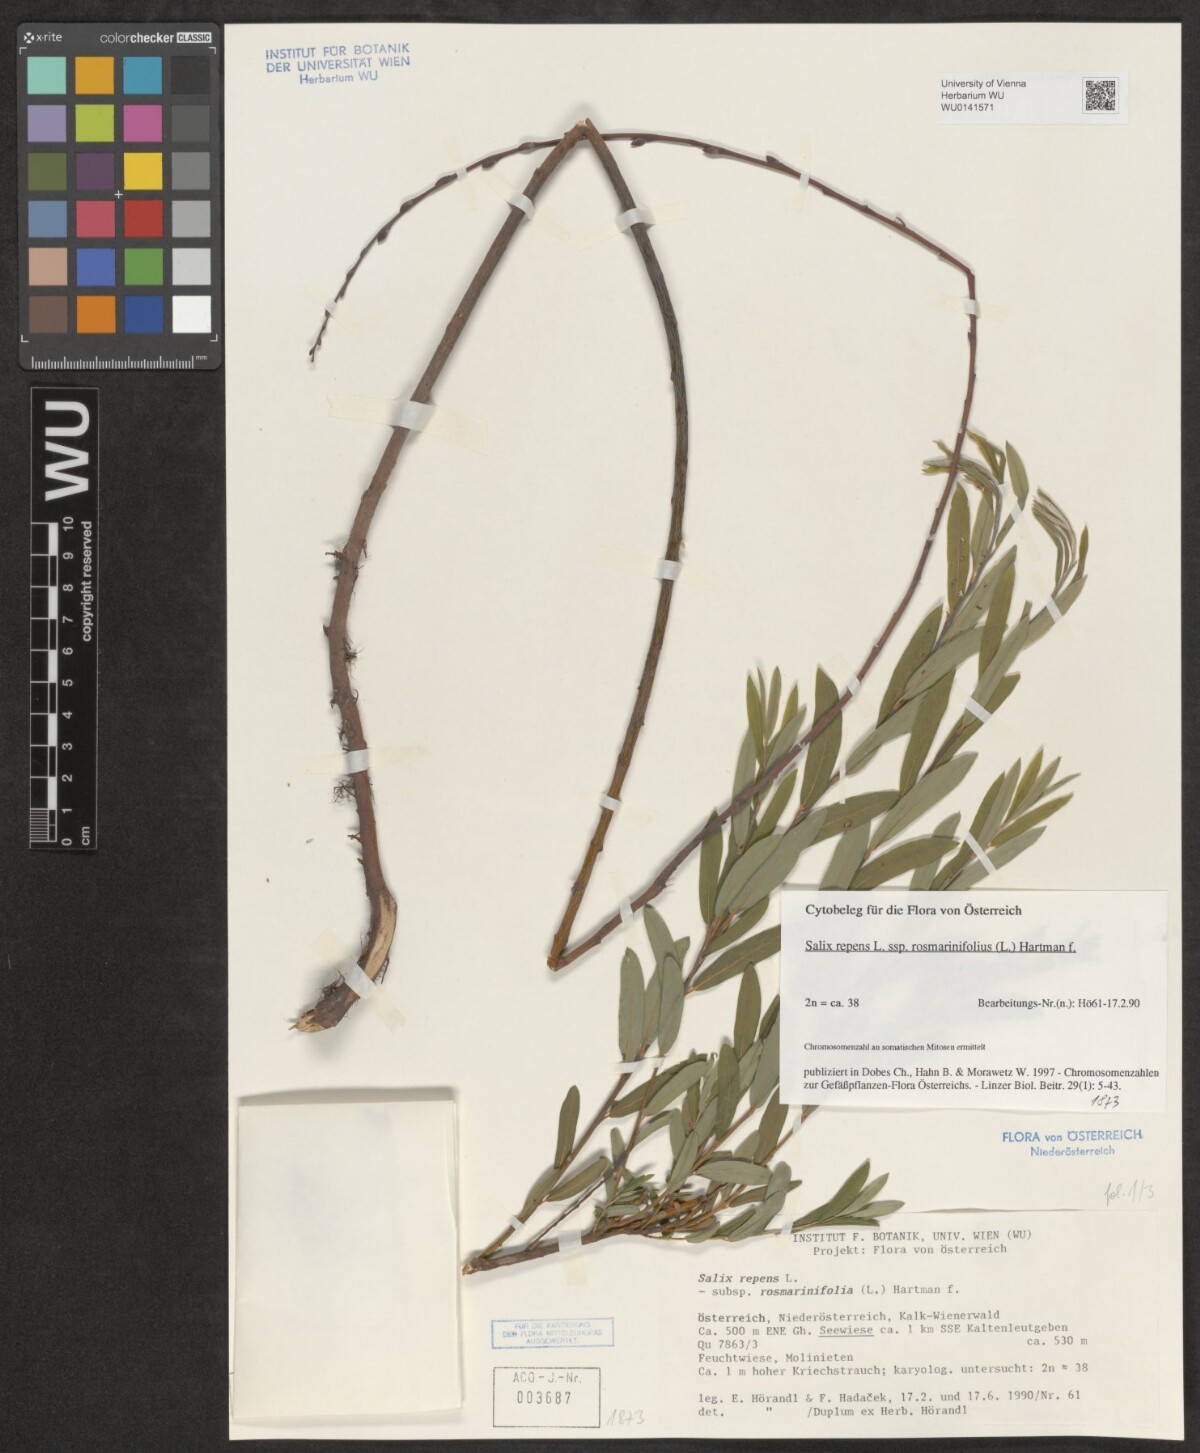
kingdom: Plantae
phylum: Tracheophyta
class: Magnoliopsida
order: Malpighiales
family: Salicaceae
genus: Salix
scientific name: Salix repens
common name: Creeping willow
